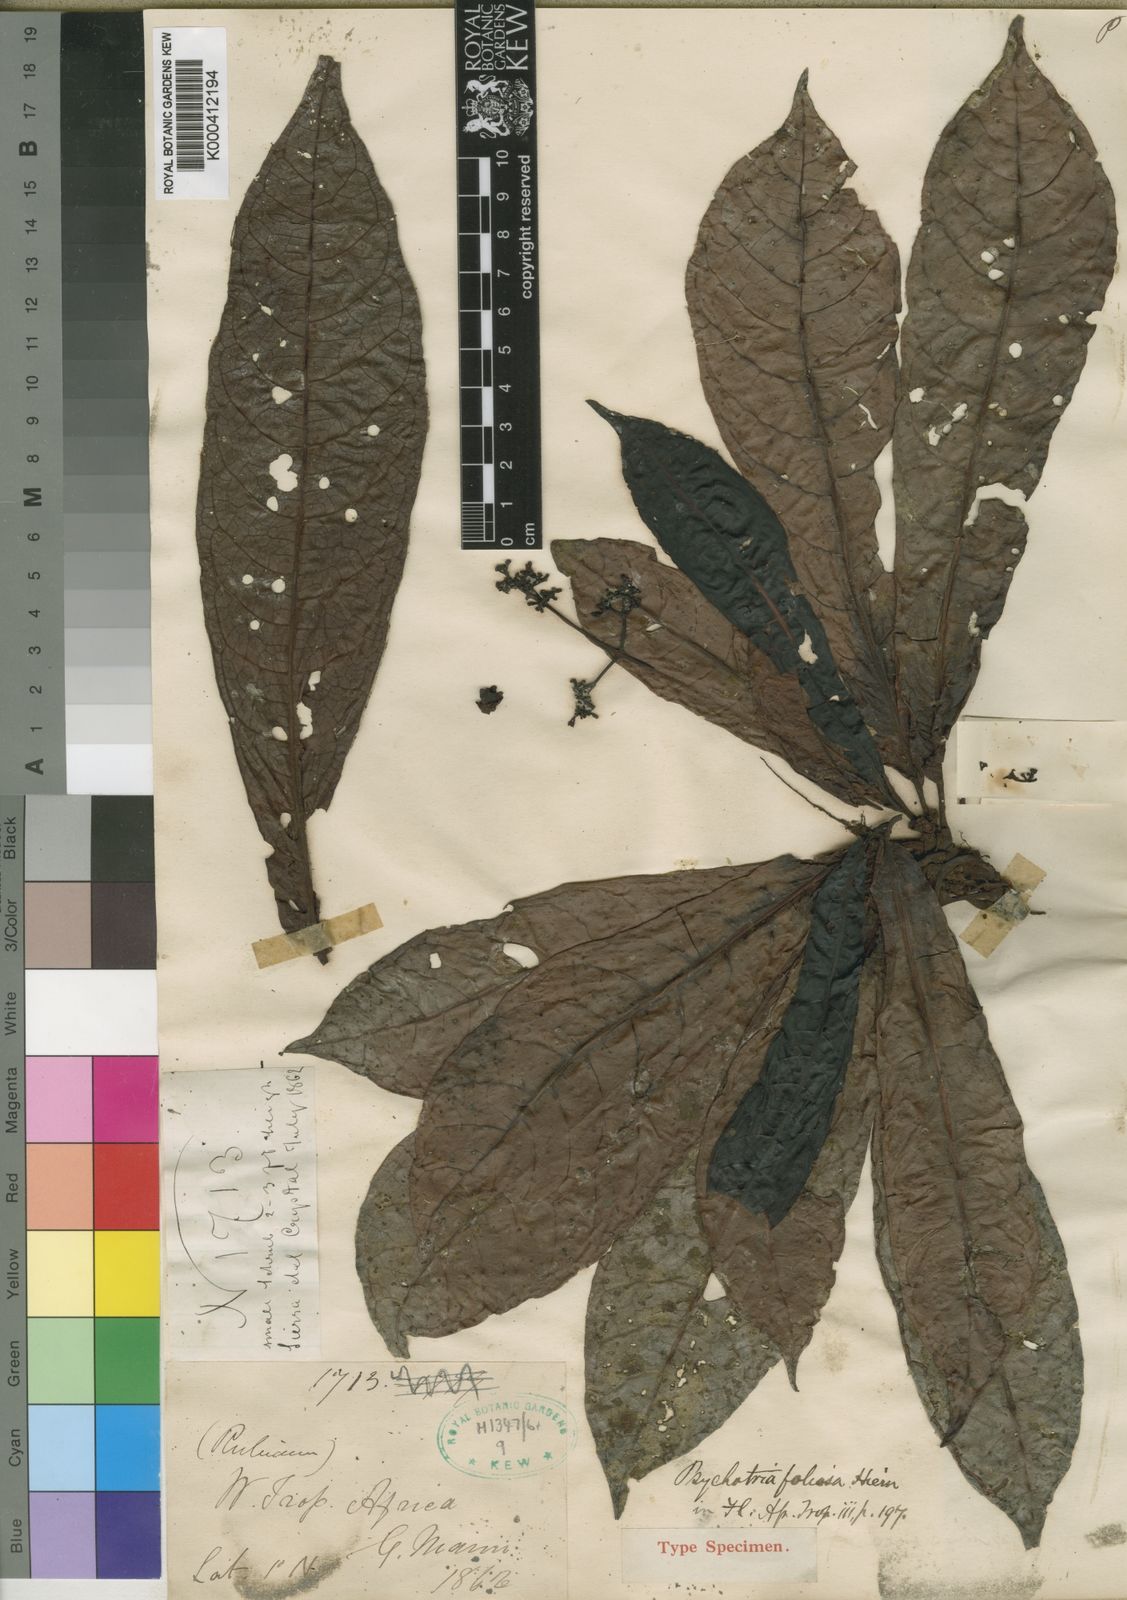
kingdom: Plantae
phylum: Tracheophyta
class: Magnoliopsida
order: Gentianales
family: Rubiaceae
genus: Psychotria
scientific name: Psychotria foliosa
